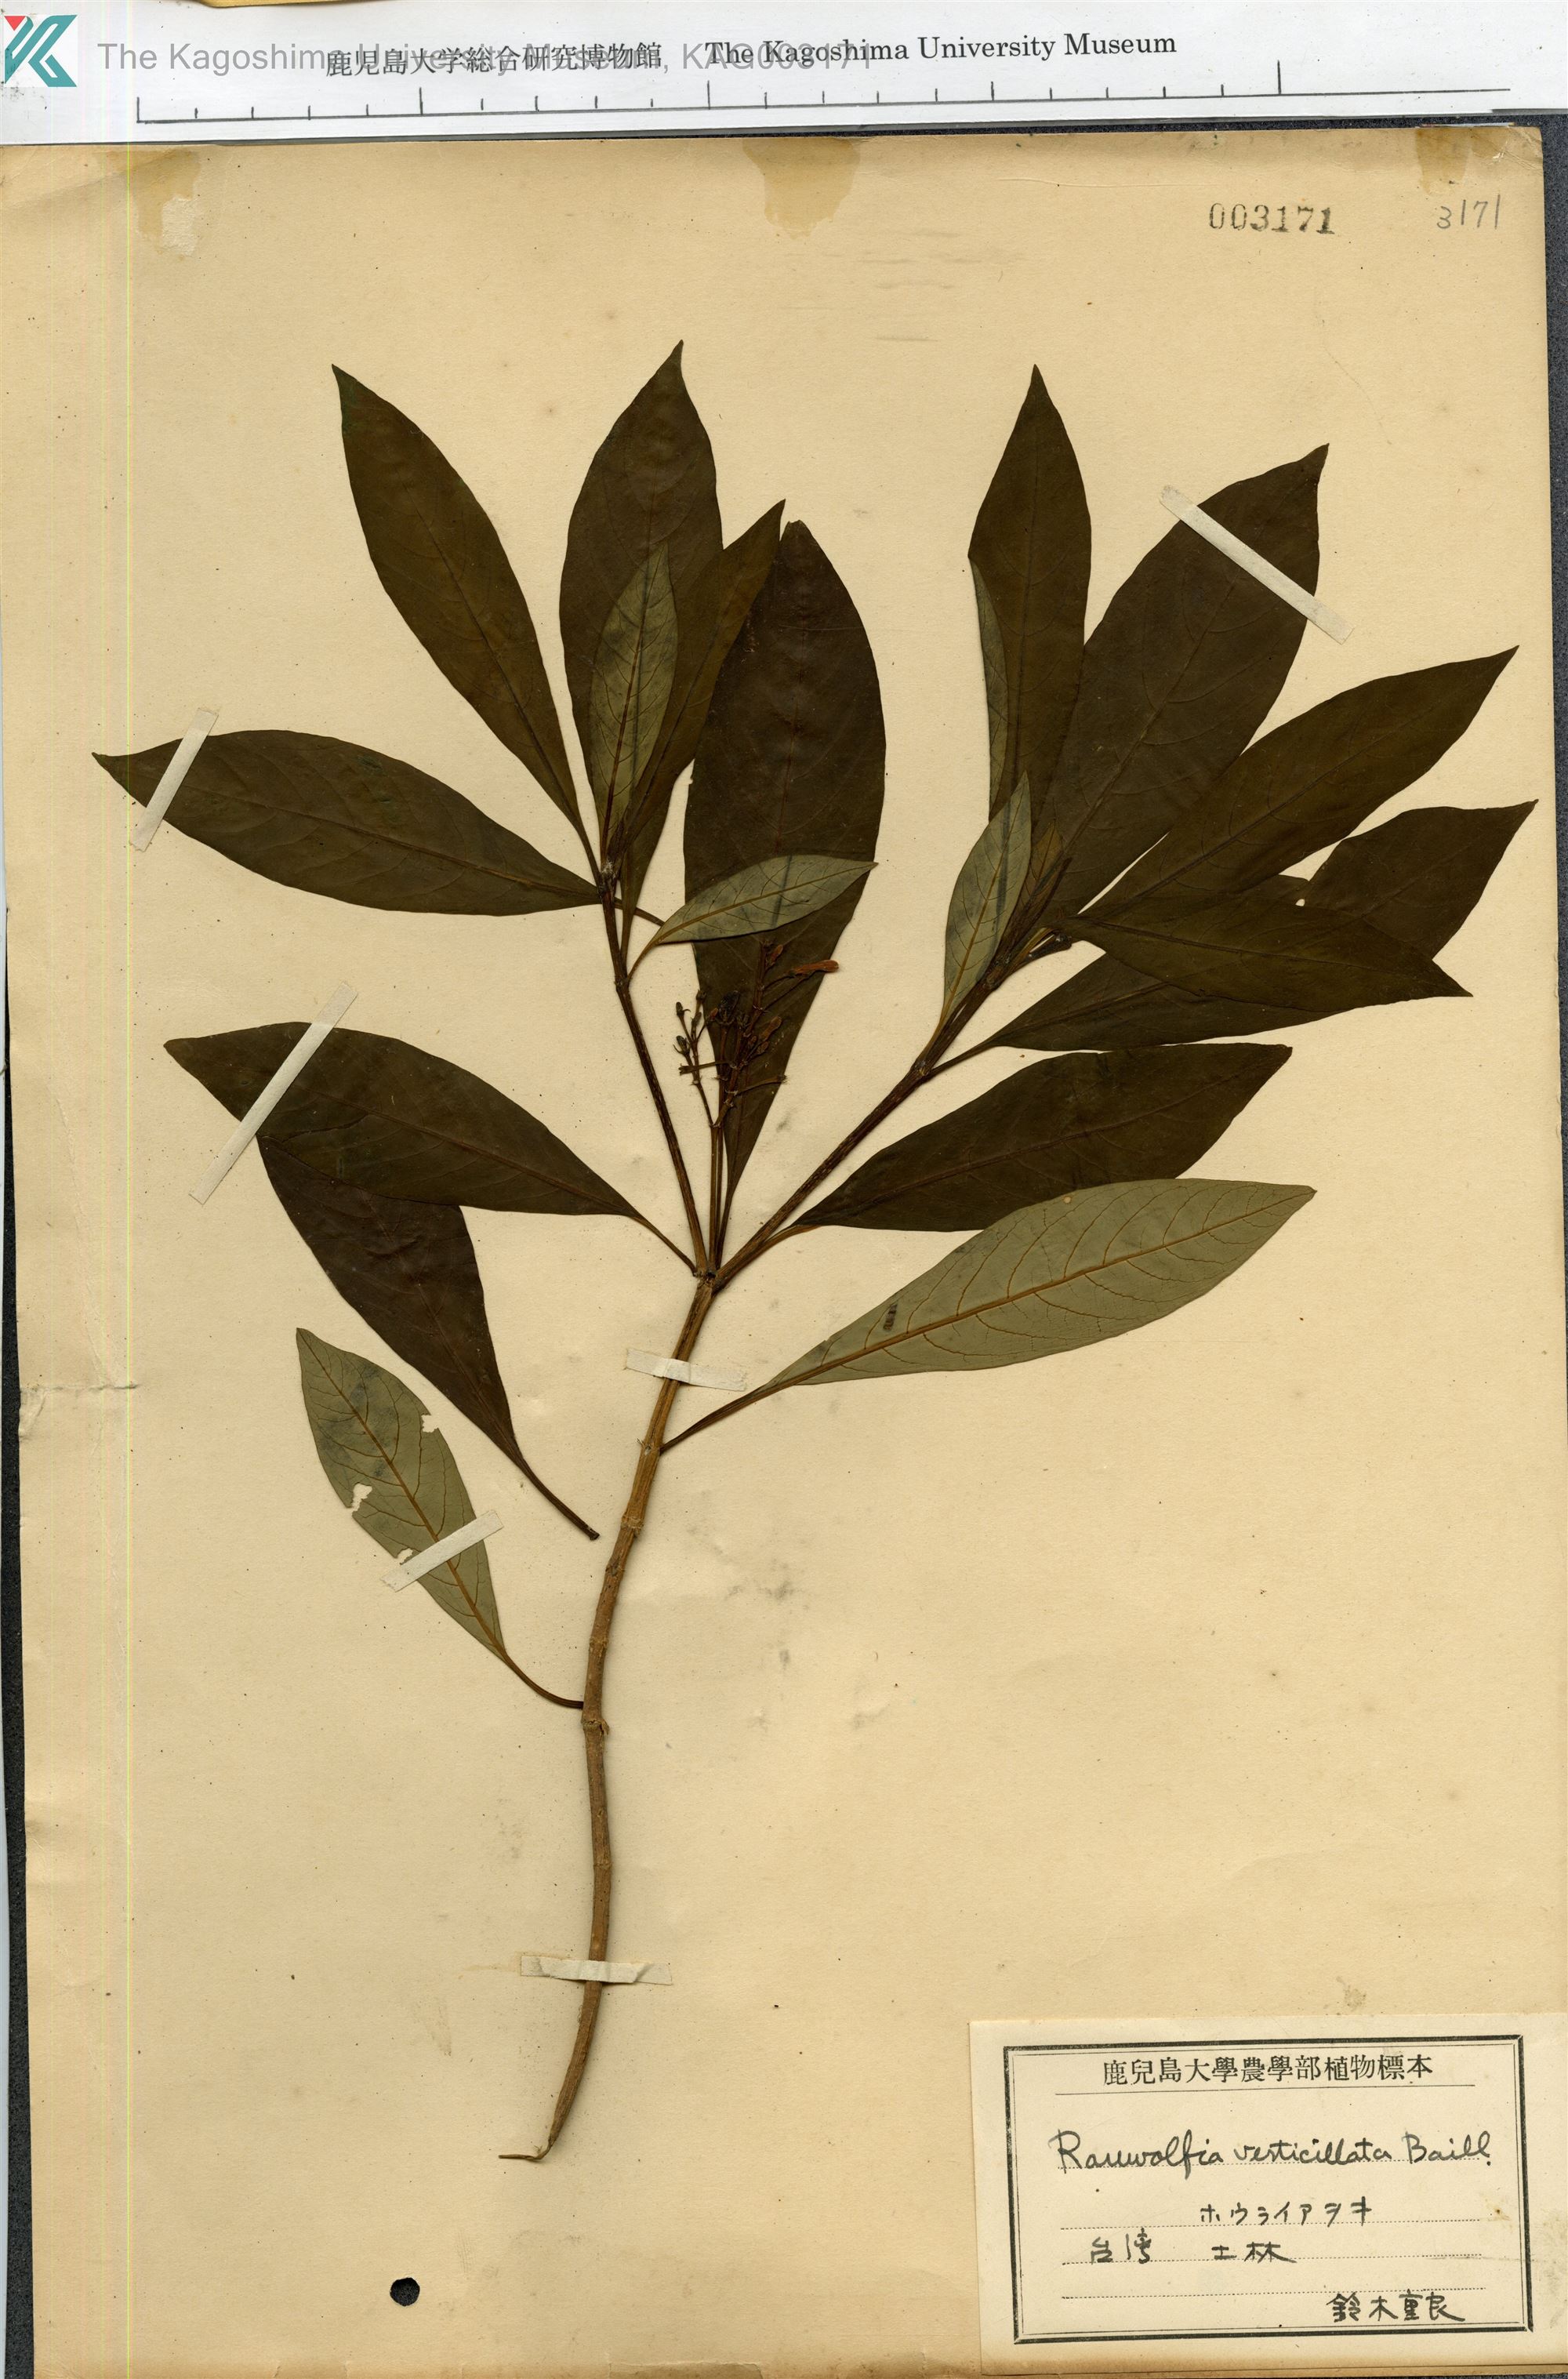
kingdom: Plantae
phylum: Tracheophyta
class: Magnoliopsida
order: Gentianales
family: Apocynaceae
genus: Rauvolfia
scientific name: Rauvolfia verticillata
